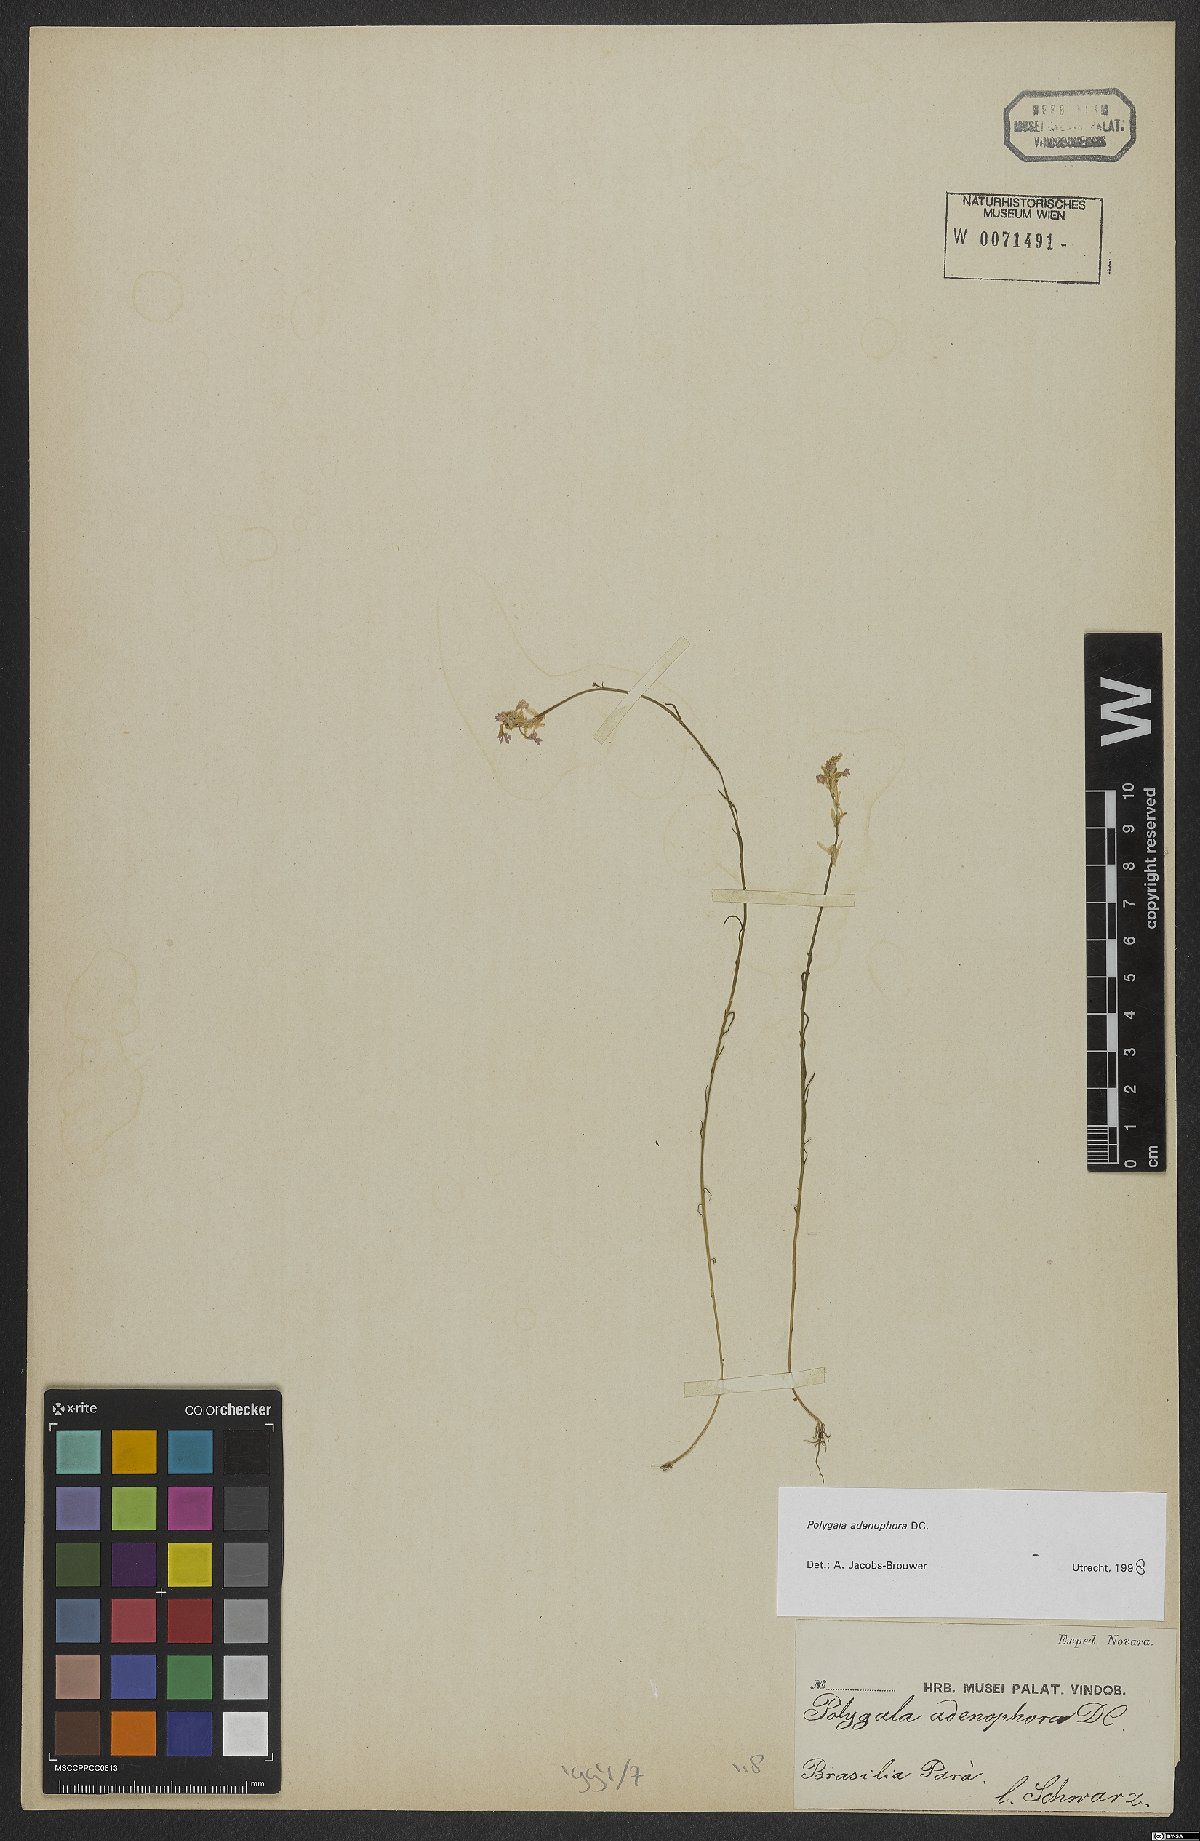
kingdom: Plantae
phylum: Tracheophyta
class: Magnoliopsida
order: Fabales
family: Polygalaceae
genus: Polygala
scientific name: Polygala adenophora
